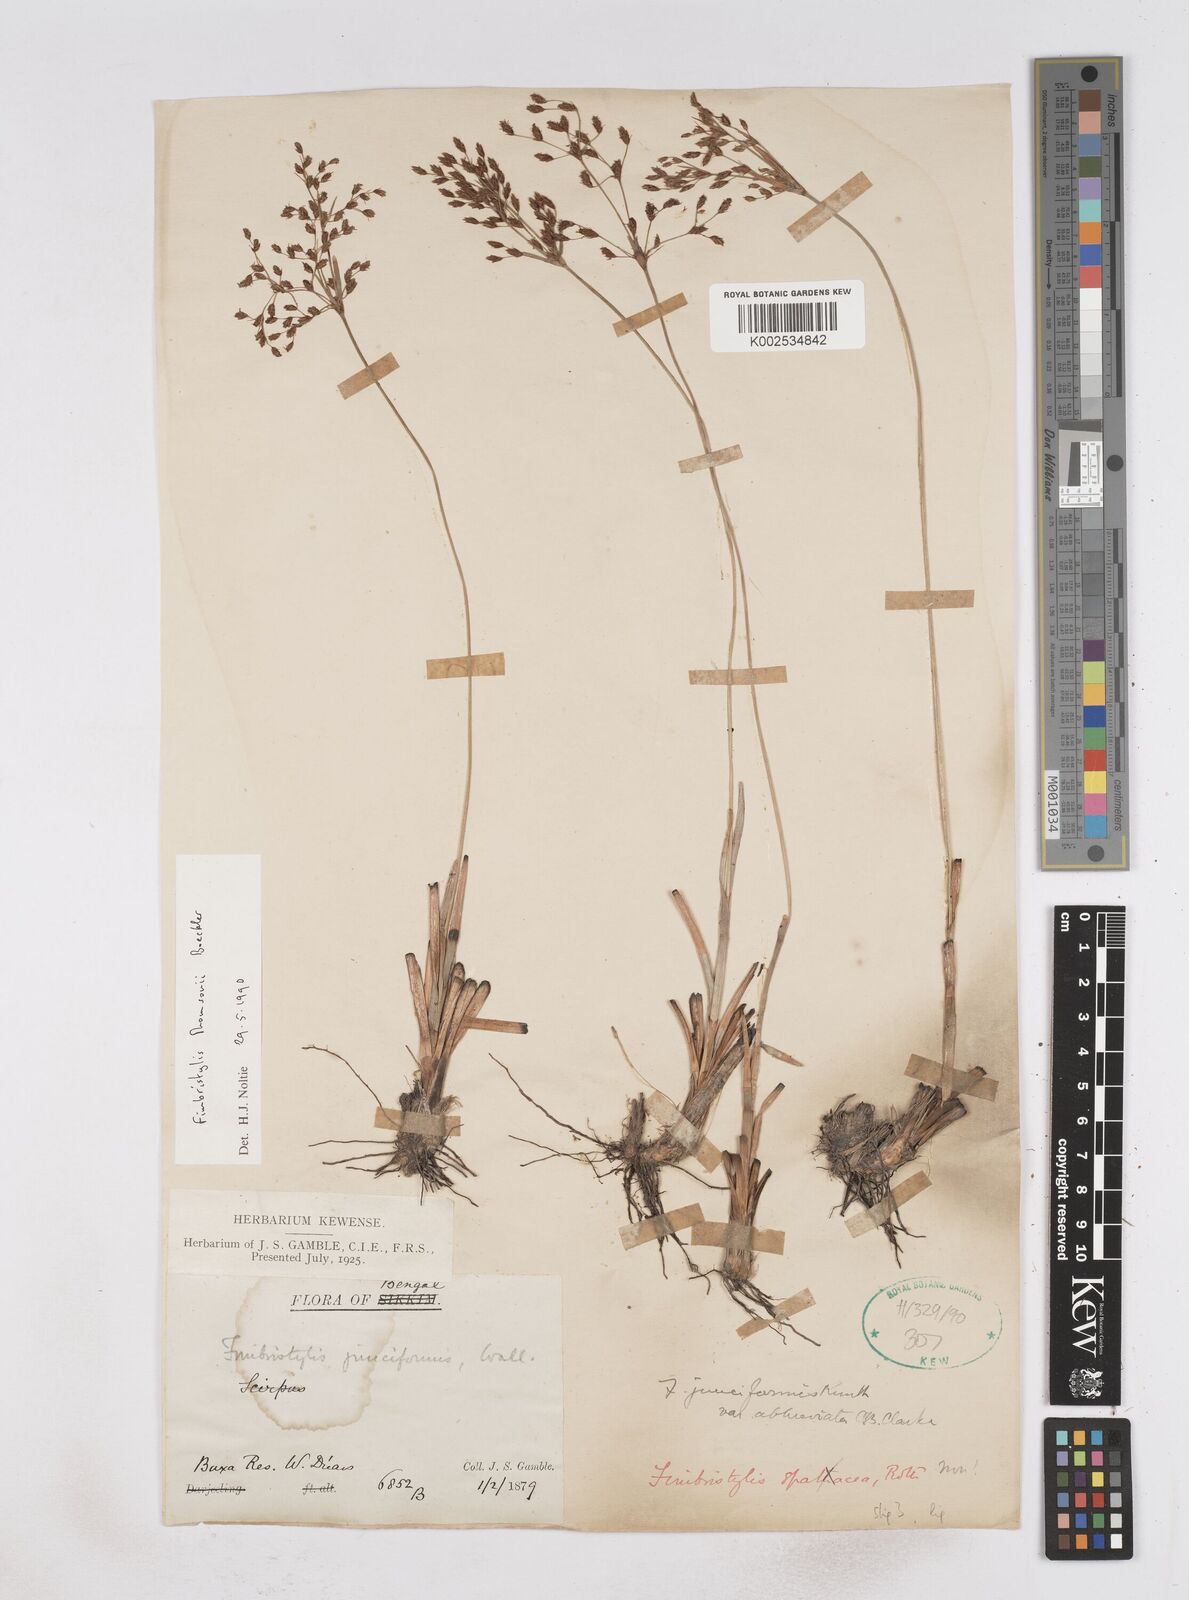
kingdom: Plantae
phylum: Tracheophyta
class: Liliopsida
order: Poales
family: Cyperaceae
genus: Fimbristylis
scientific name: Fimbristylis thomsonii
